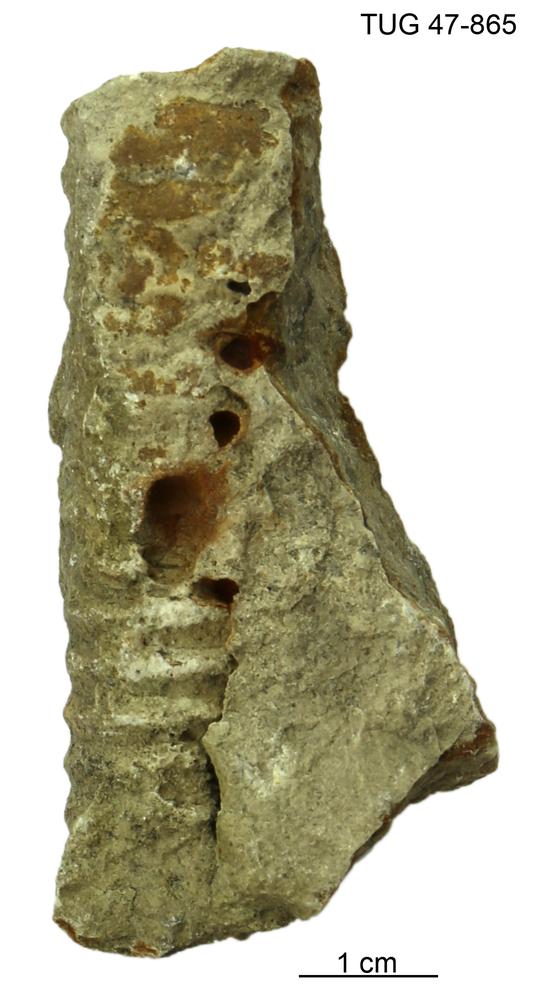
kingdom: Animalia
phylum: Mollusca
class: Cephalopoda
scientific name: Cephalopoda
